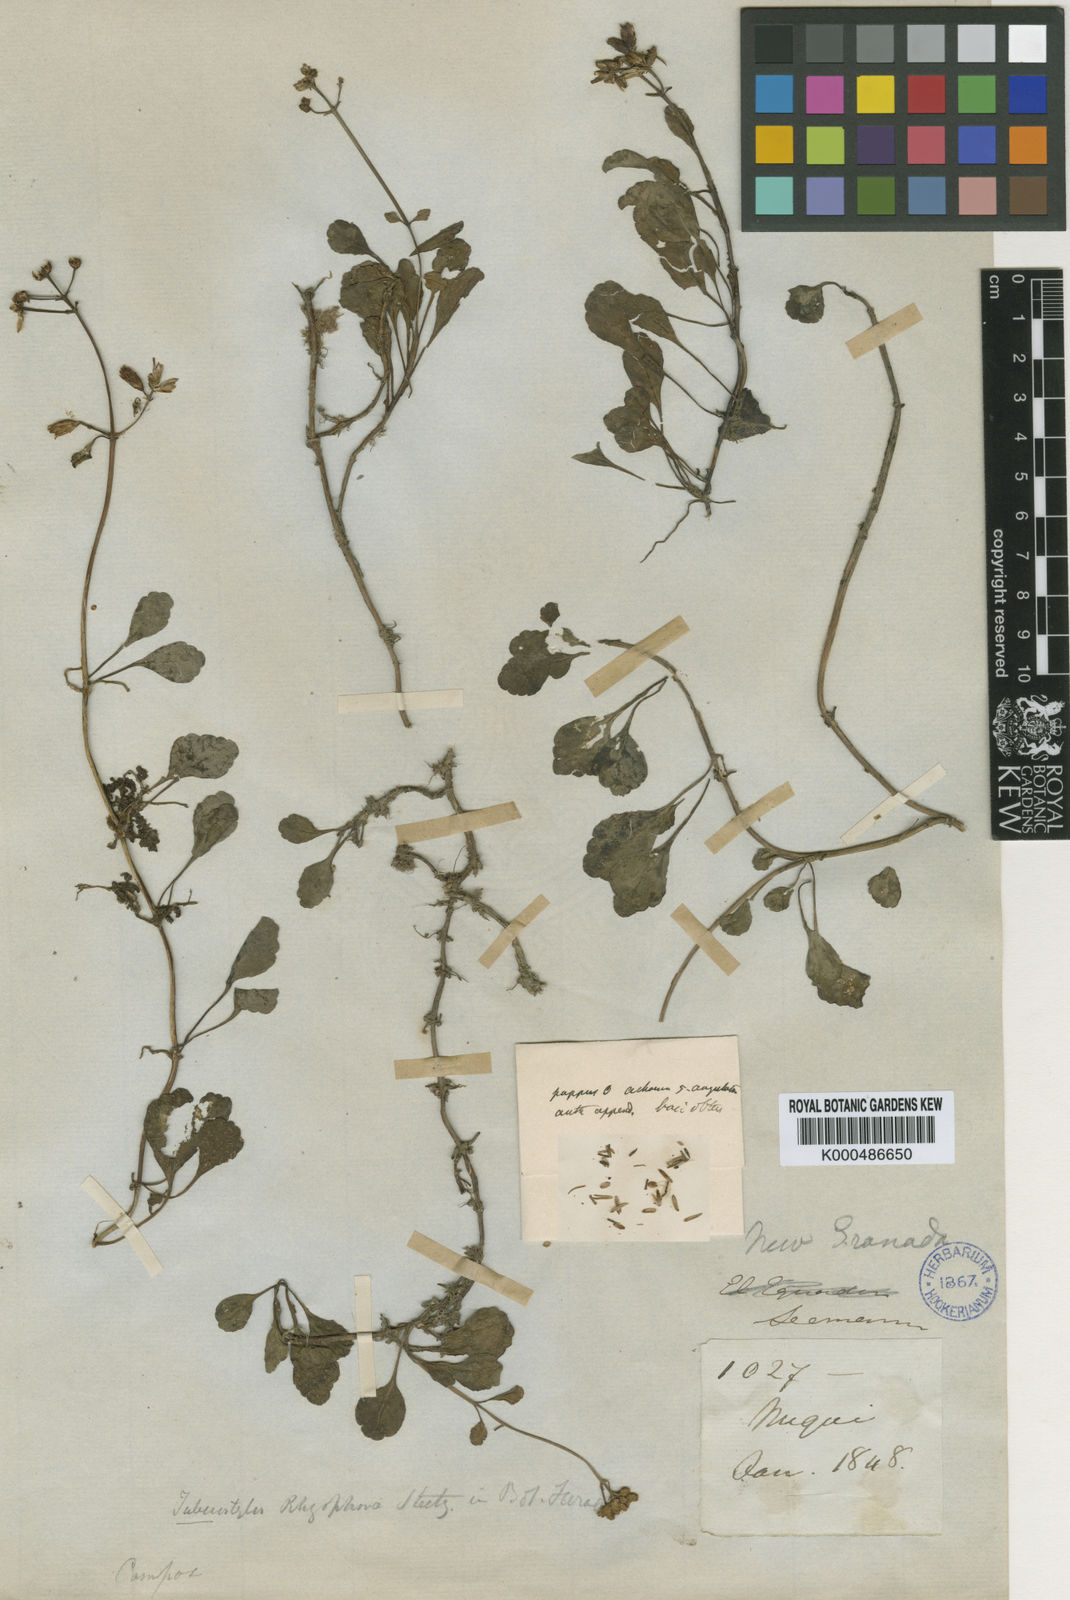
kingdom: Plantae
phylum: Tracheophyta
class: Magnoliopsida
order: Asterales
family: Asteraceae
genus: Tuberostylis
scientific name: Tuberostylis rhizophorae
